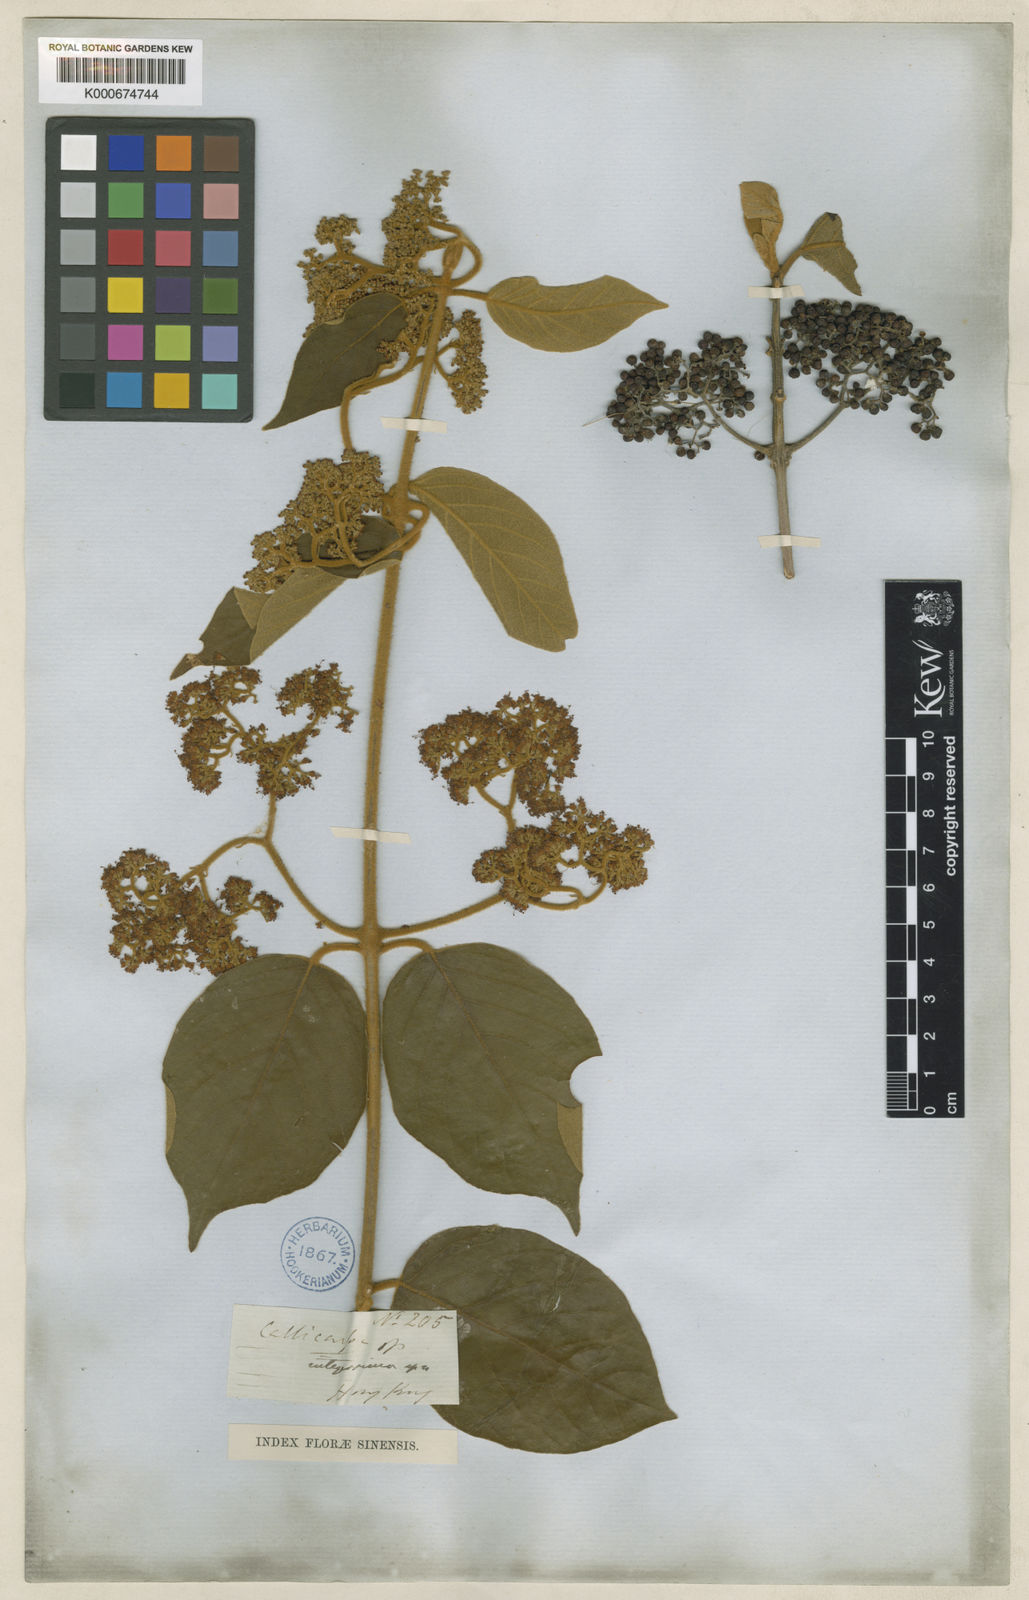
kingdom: Plantae
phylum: Tracheophyta
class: Magnoliopsida
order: Lamiales
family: Lamiaceae
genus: Callicarpa
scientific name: Callicarpa integerrima
